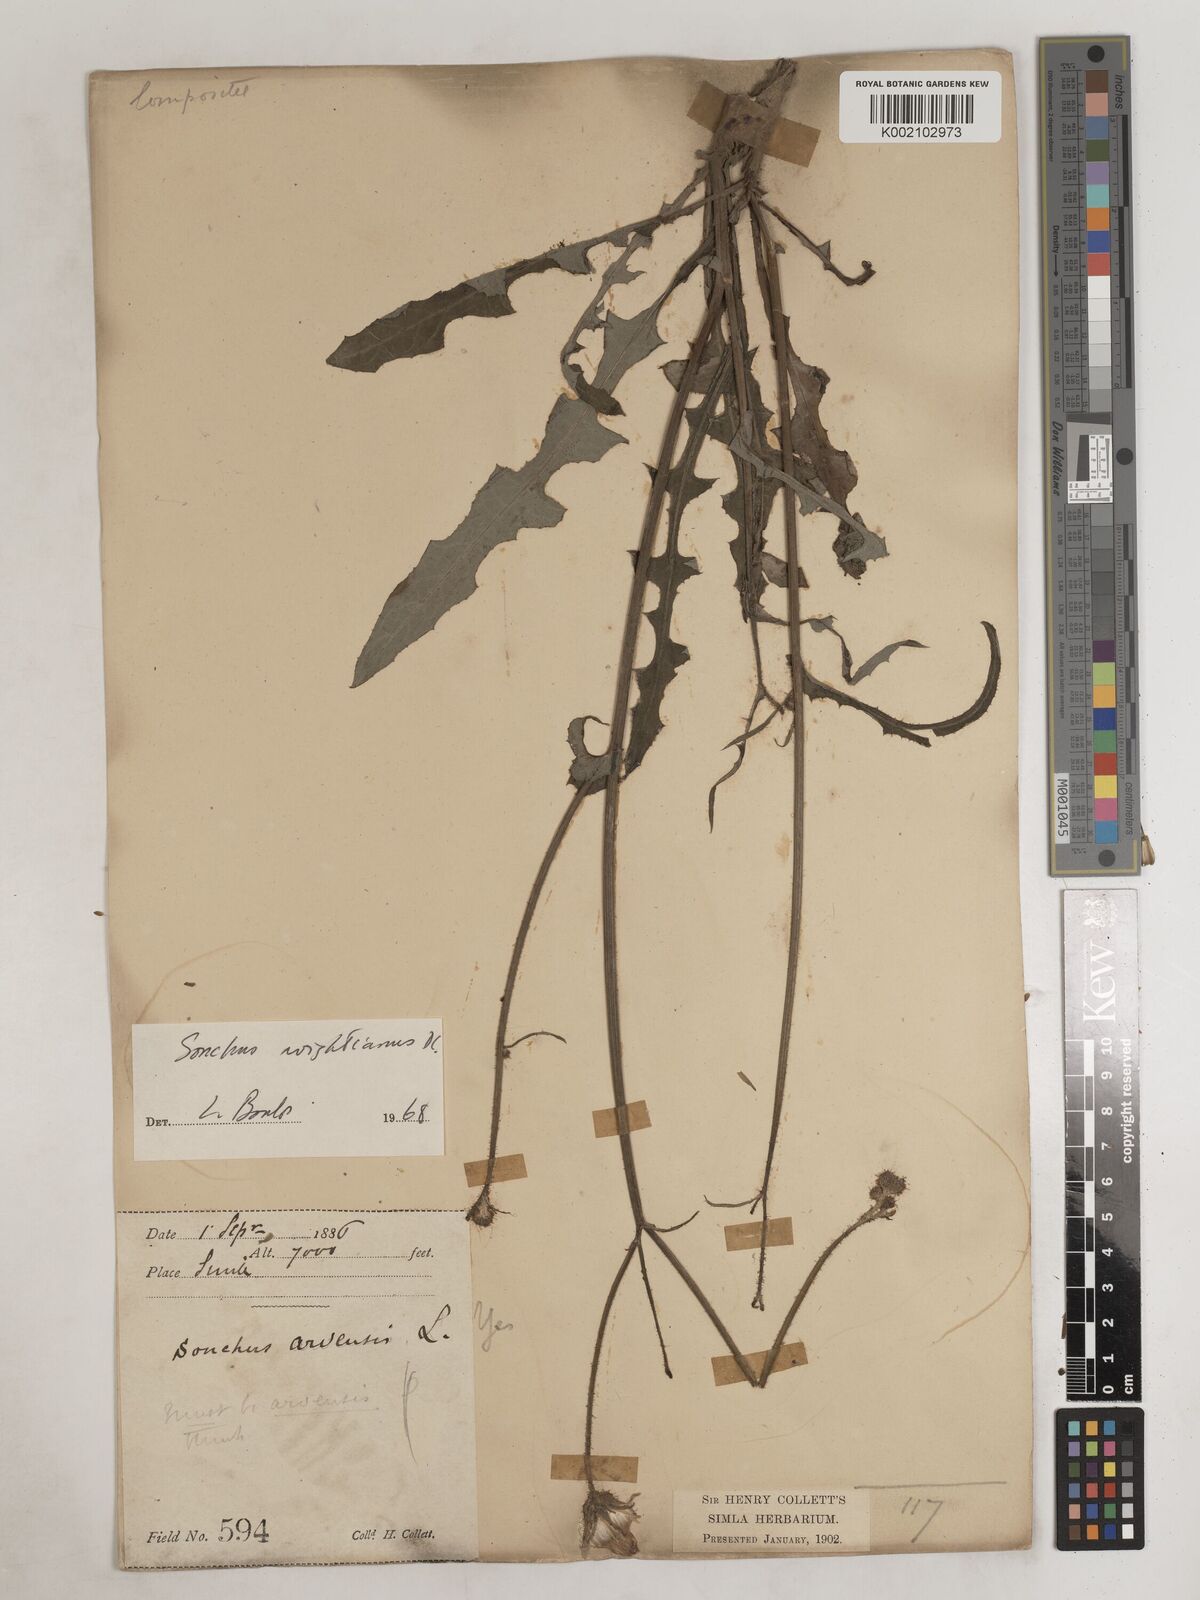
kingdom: Plantae
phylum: Tracheophyta
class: Magnoliopsida
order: Asterales
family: Asteraceae
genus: Sonchus
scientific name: Sonchus arvensis
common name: Perennial sow-thistle
